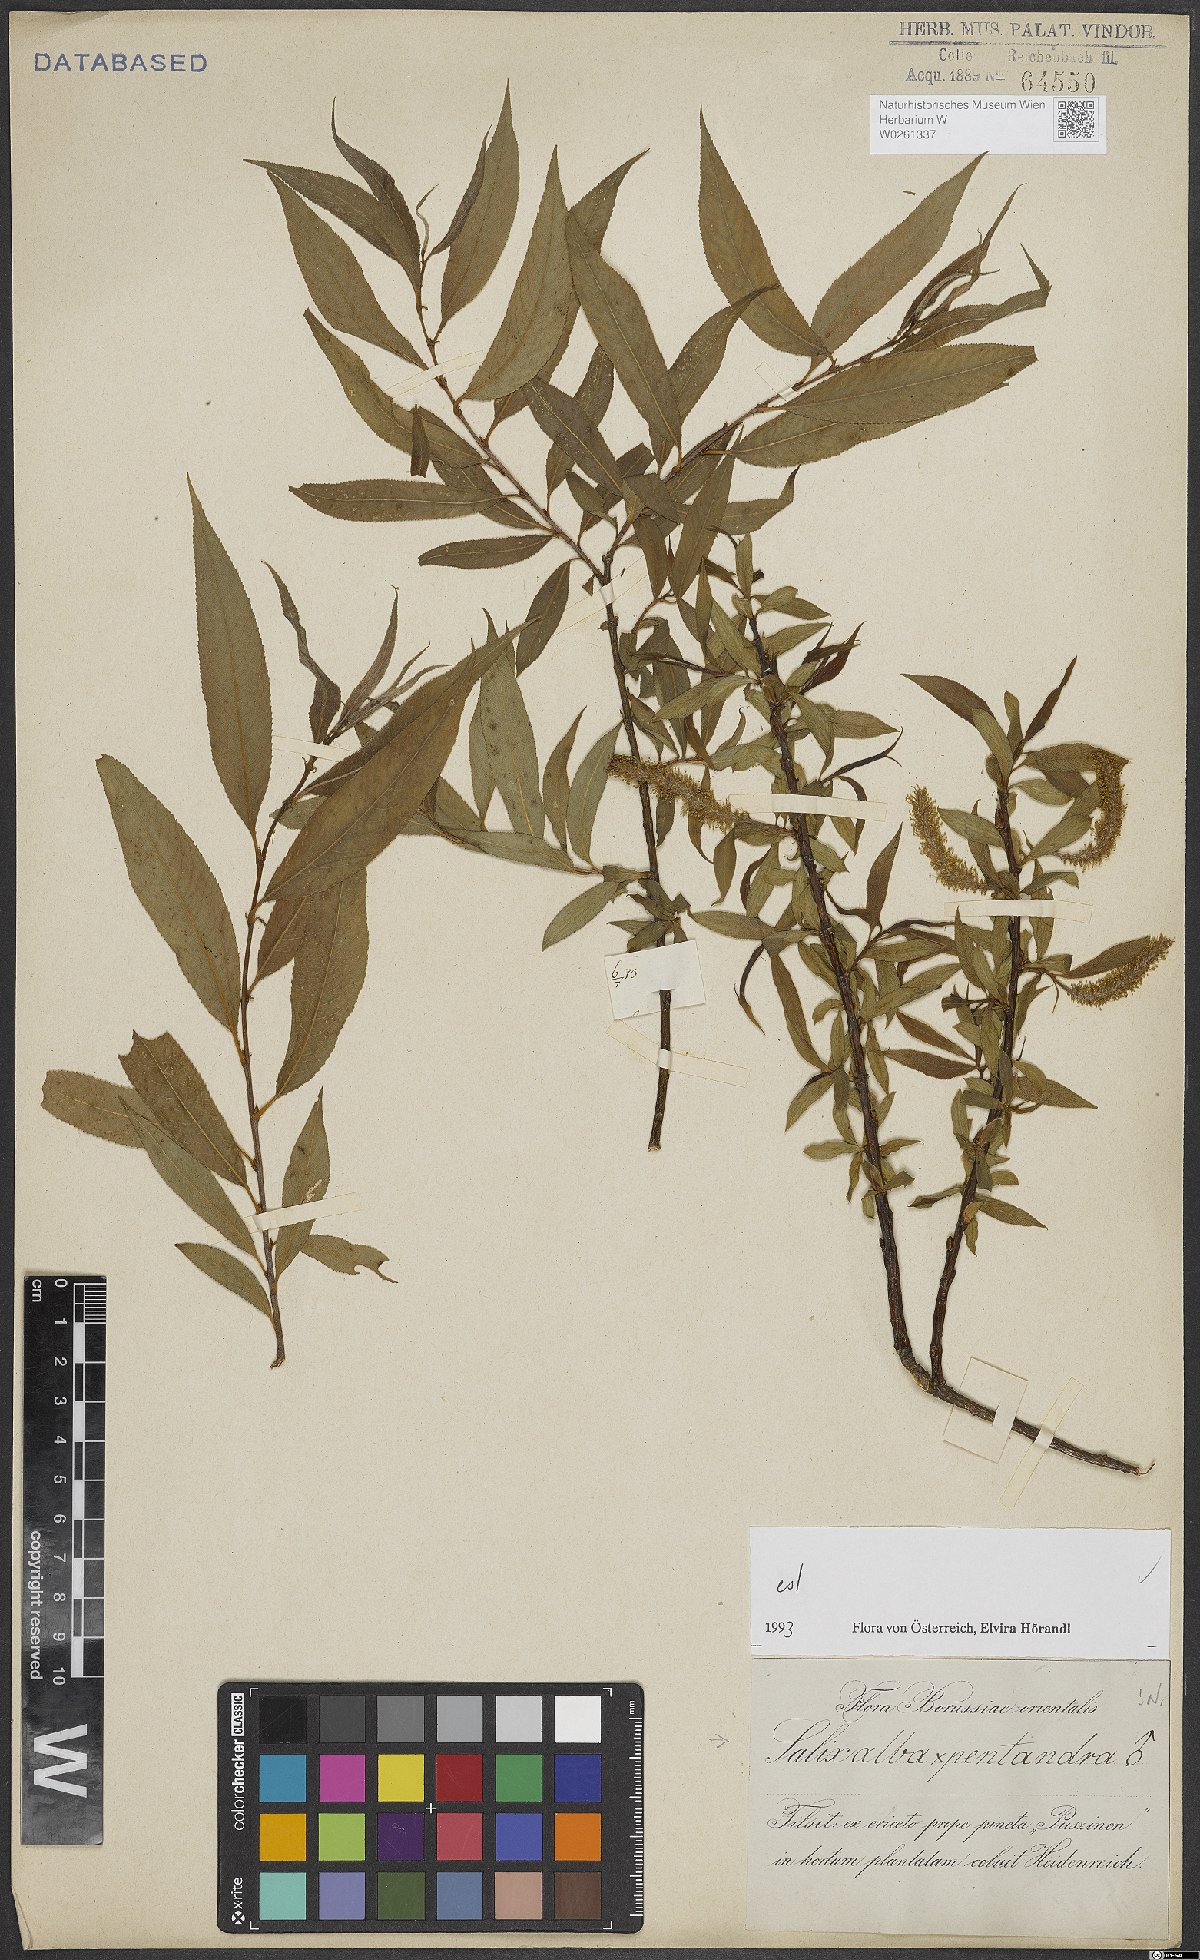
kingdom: Plantae
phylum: Tracheophyta
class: Magnoliopsida
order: Malpighiales
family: Salicaceae
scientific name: Salicaceae
